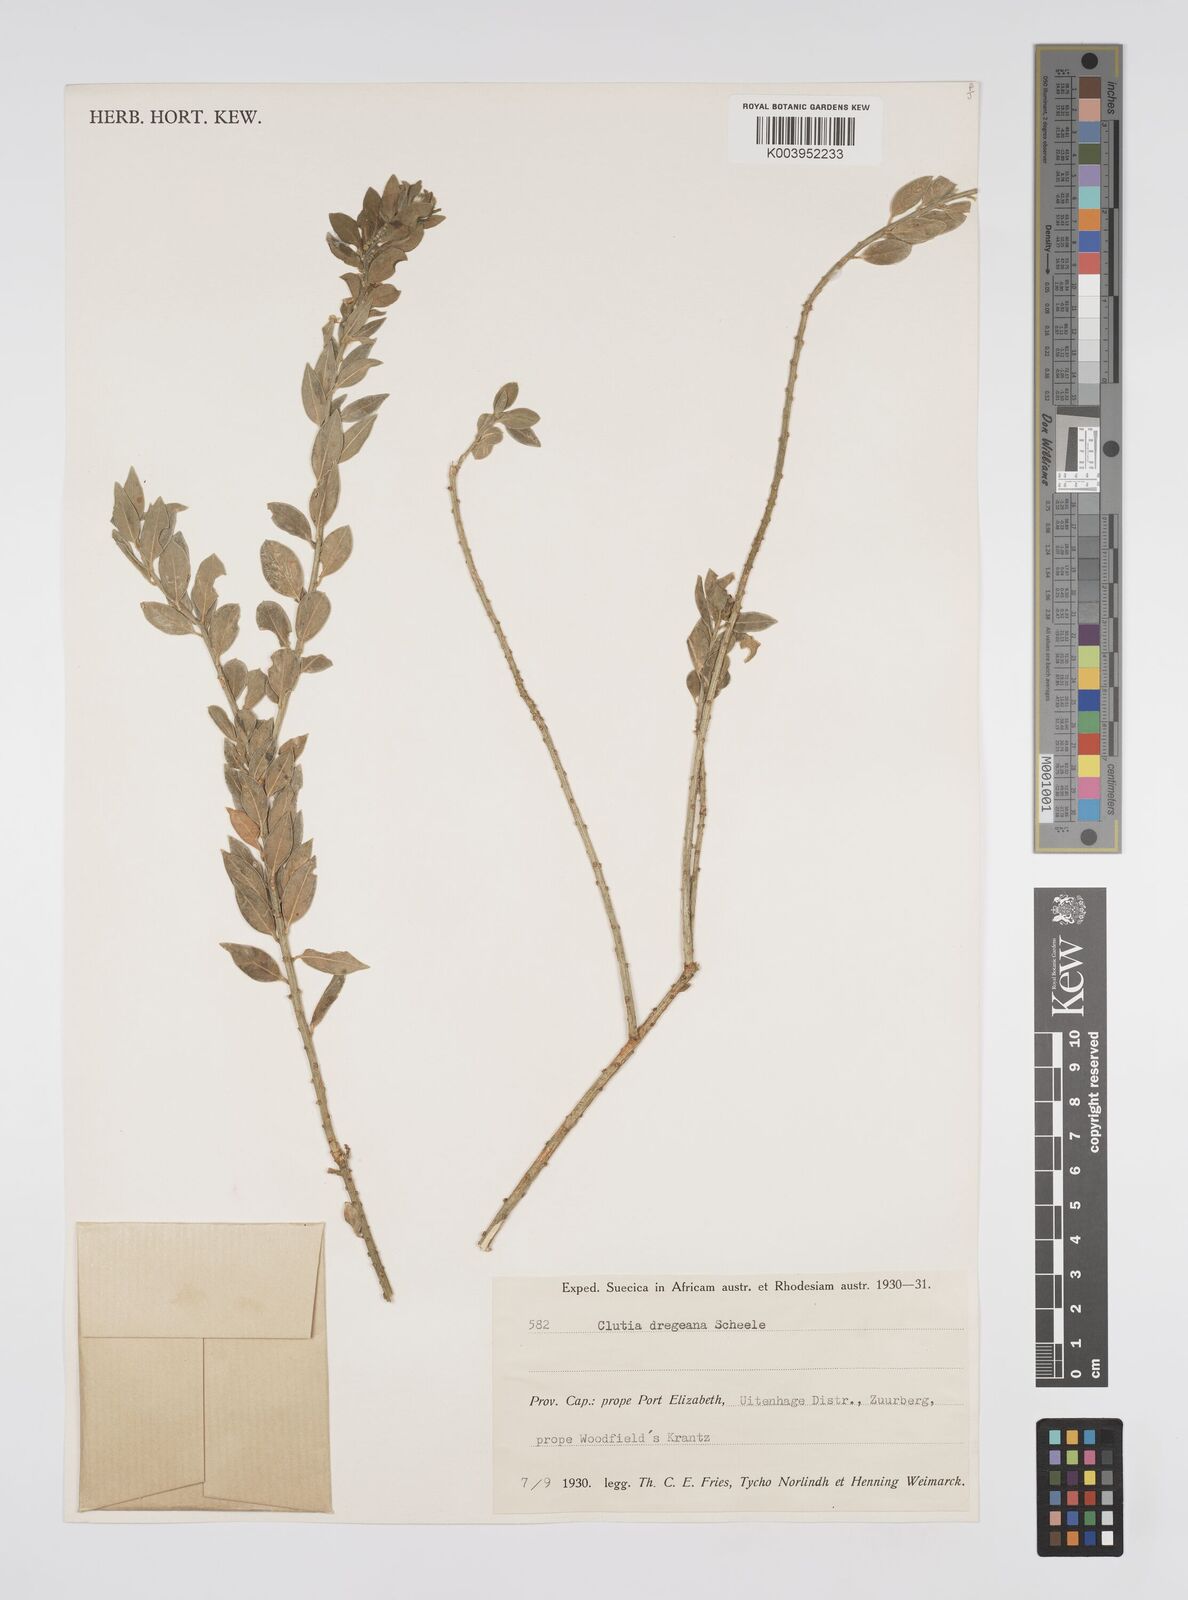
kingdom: Plantae
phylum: Tracheophyta
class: Magnoliopsida
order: Malpighiales
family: Peraceae
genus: Clutia
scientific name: Clutia dregeana
